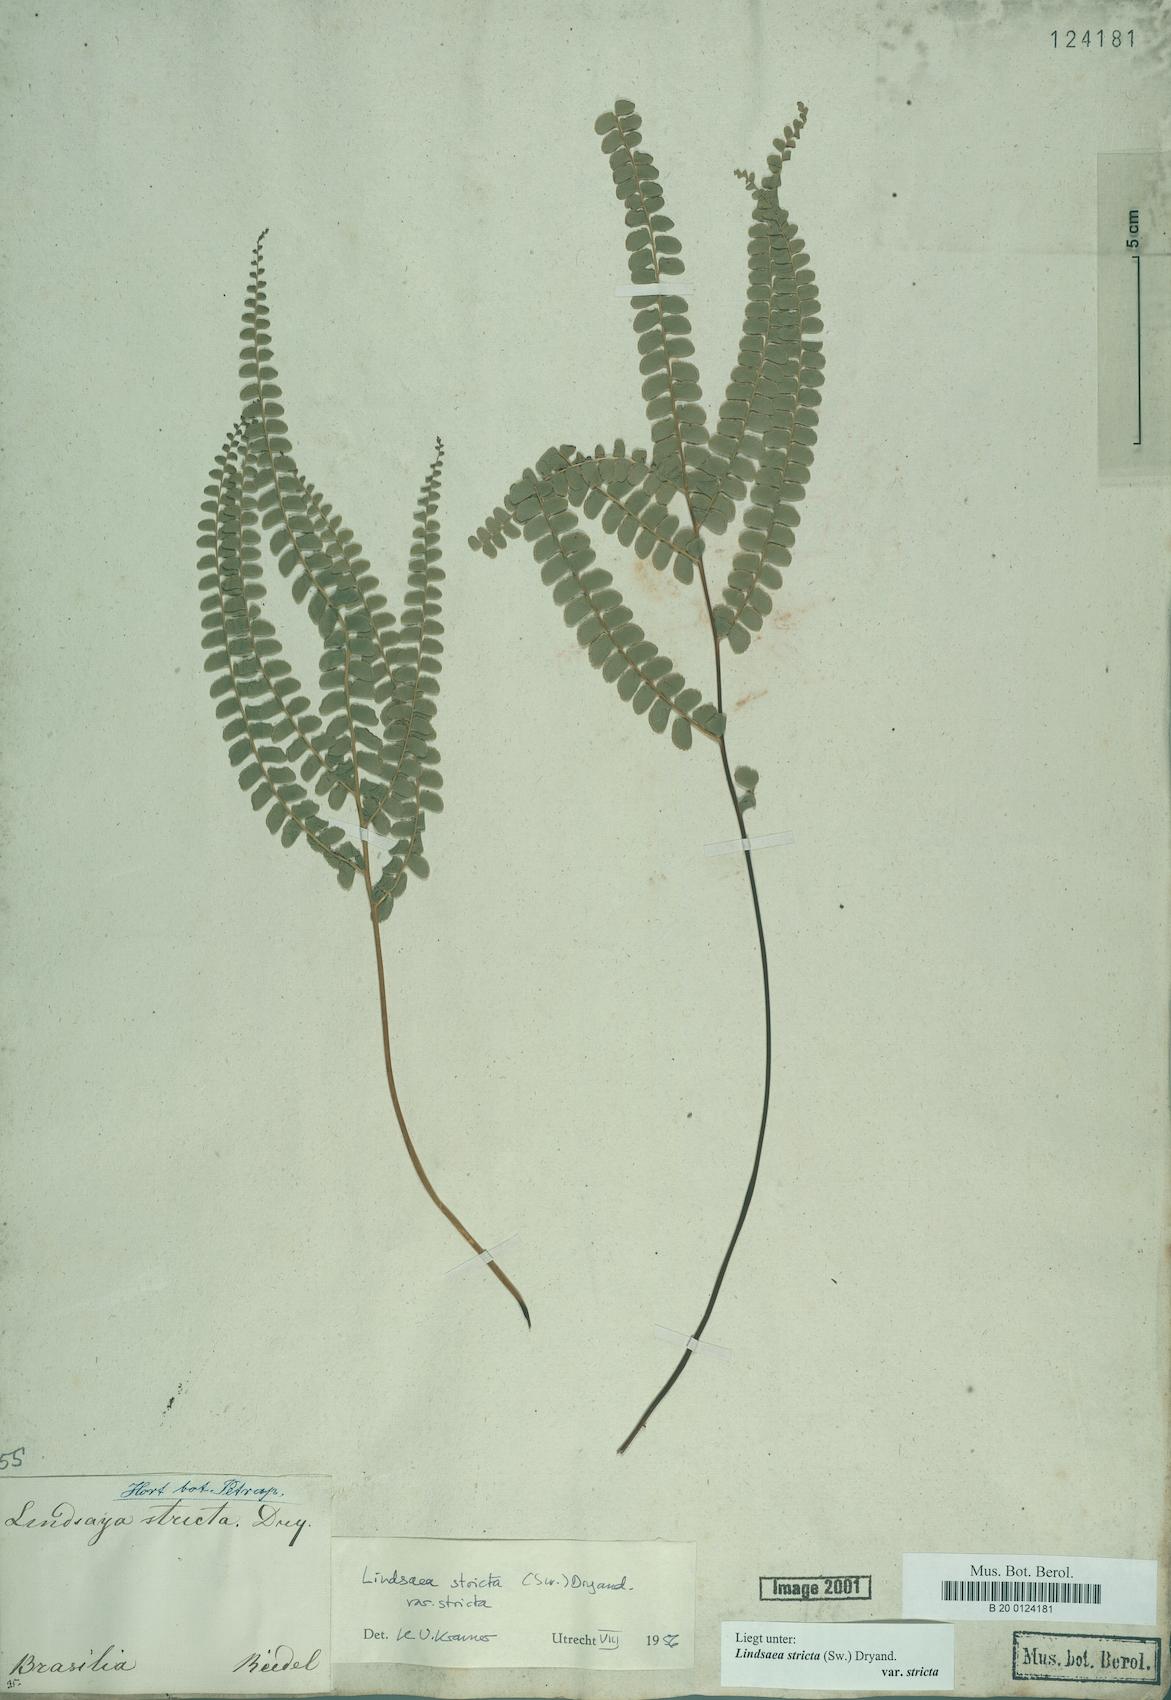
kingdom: Plantae
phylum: Tracheophyta
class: Polypodiopsida
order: Polypodiales
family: Lindsaeaceae
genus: Lindsaea
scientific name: Lindsaea stricta
